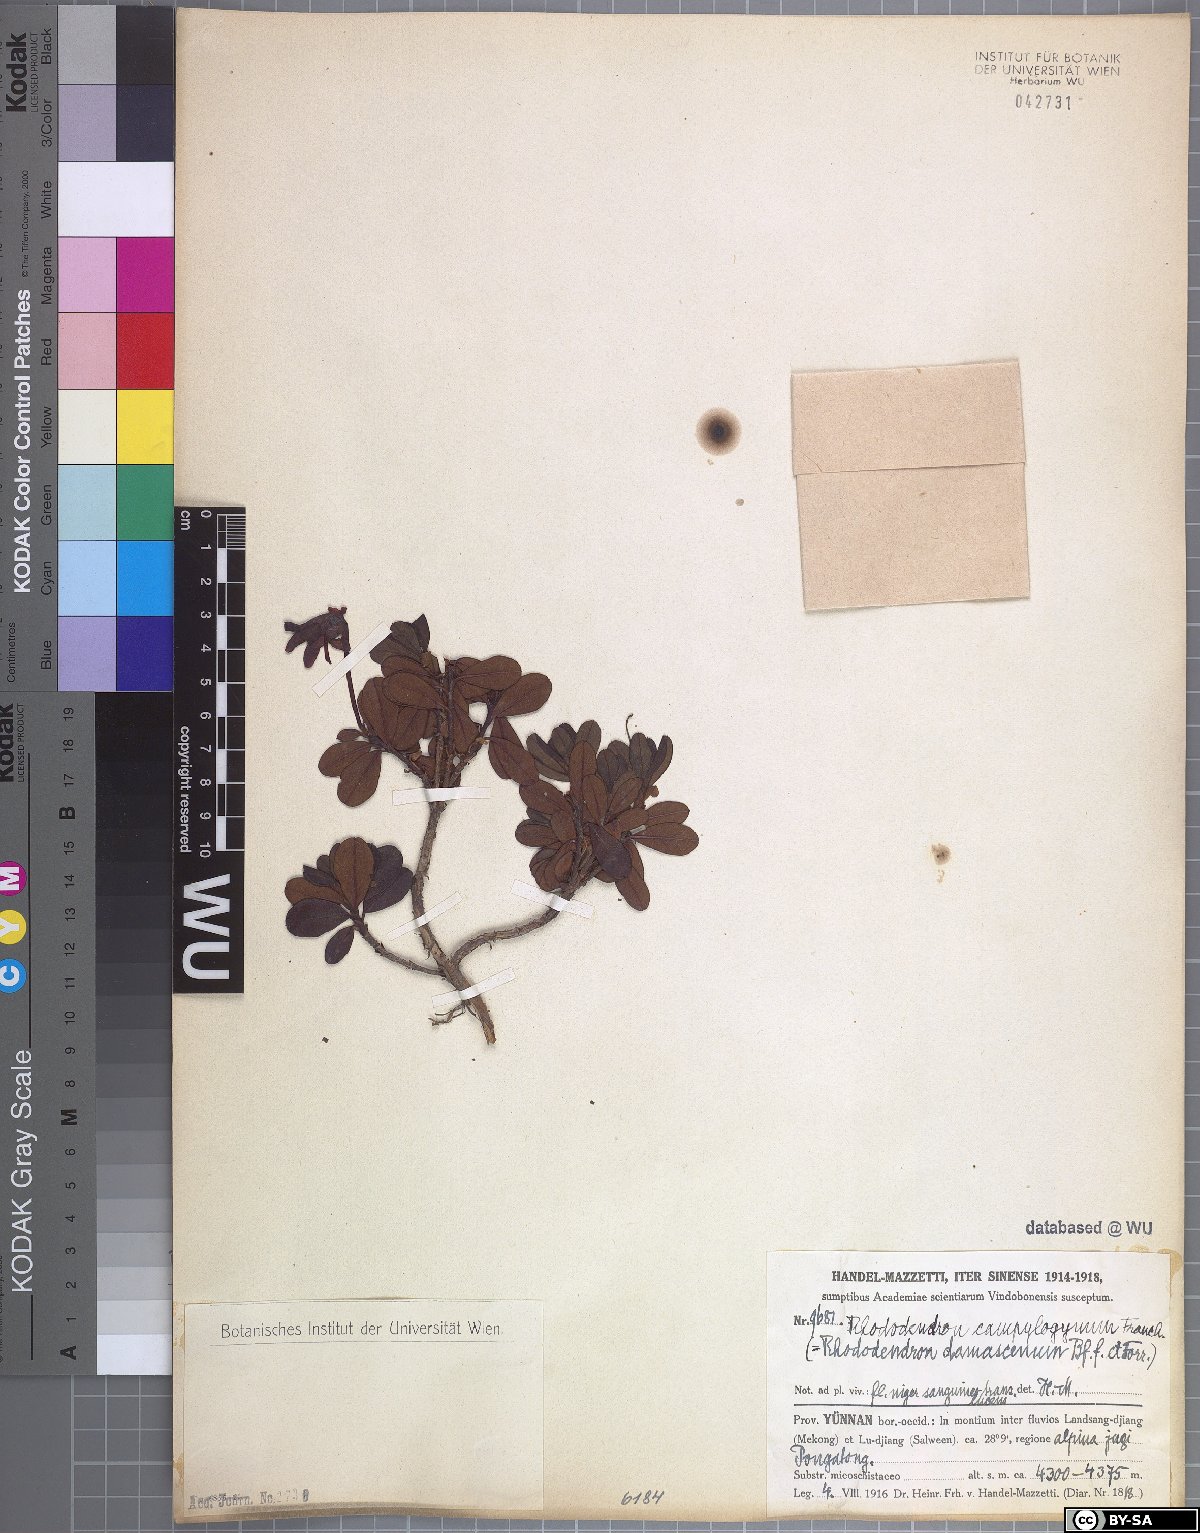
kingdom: Plantae
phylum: Tracheophyta
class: Magnoliopsida
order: Ericales
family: Ericaceae
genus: Rhododendron
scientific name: Rhododendron campylogynum
